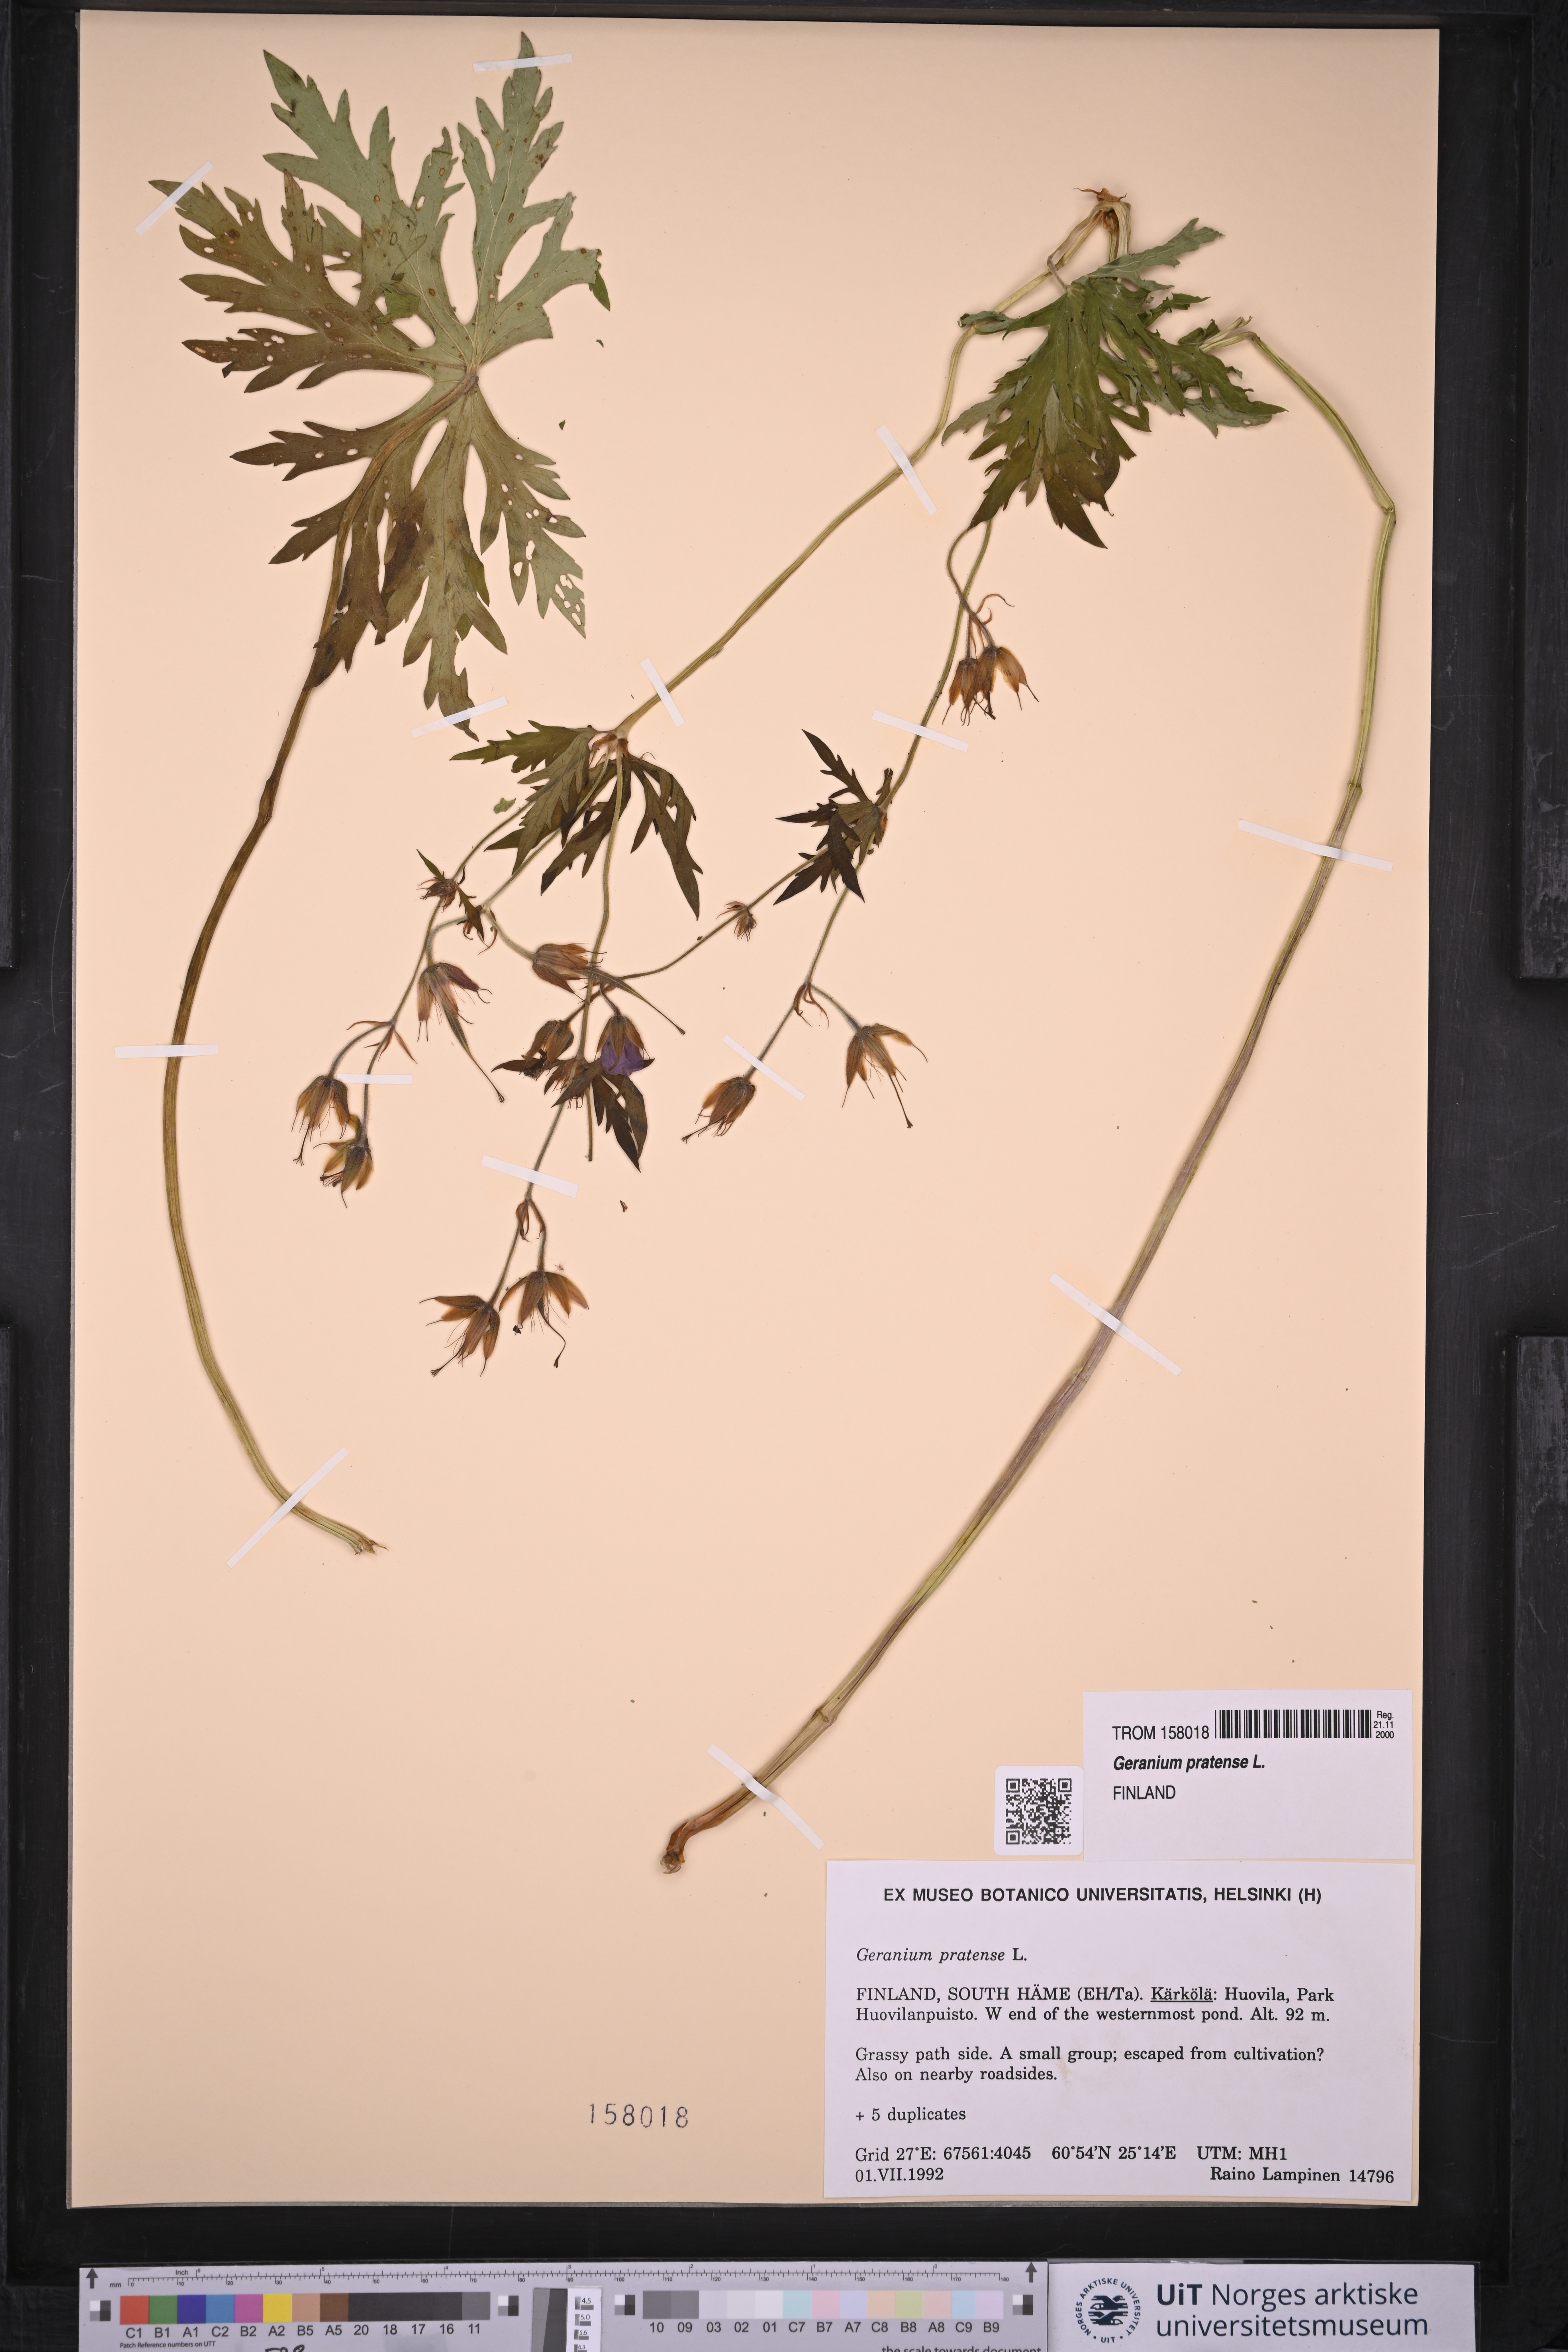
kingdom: Plantae
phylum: Tracheophyta
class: Magnoliopsida
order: Geraniales
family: Geraniaceae
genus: Geranium
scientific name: Geranium pratense
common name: Meadow crane's-bill
